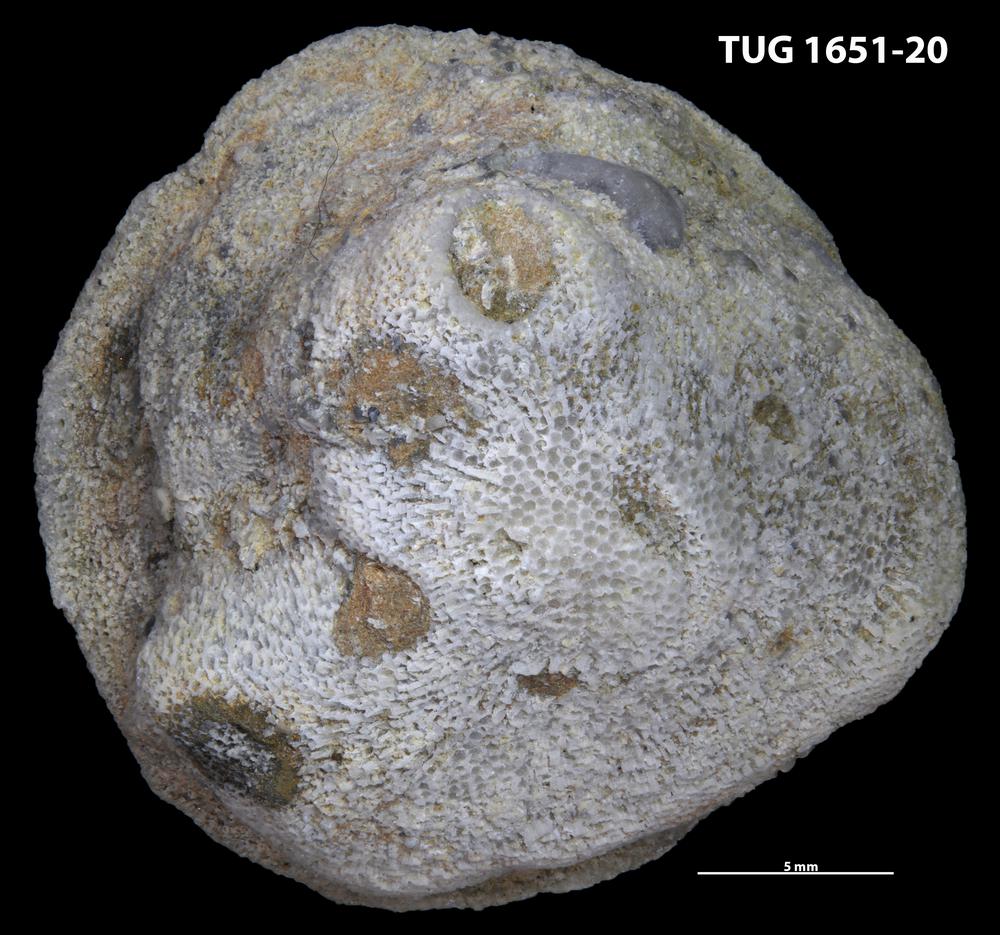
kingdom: Animalia
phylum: Annelida
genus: Anoigmaichnus
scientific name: Anoigmaichnus
